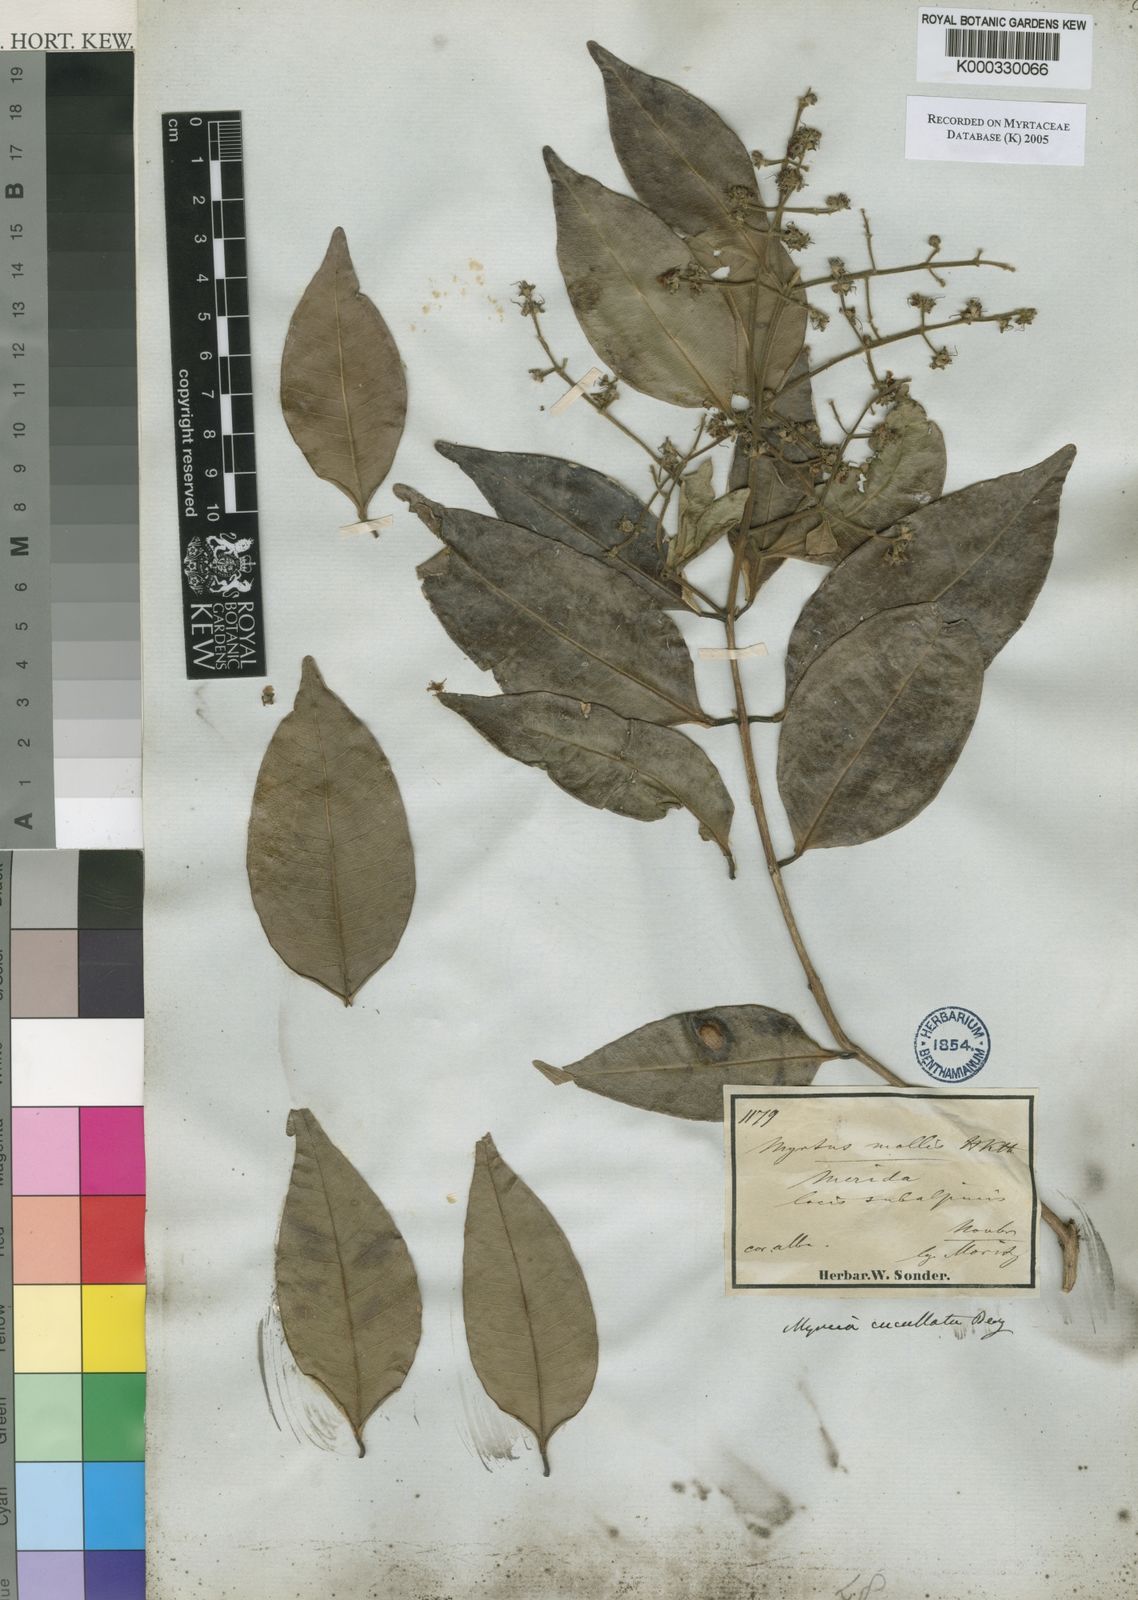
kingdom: Plantae
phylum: Tracheophyta
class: Magnoliopsida
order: Myrtales
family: Myrtaceae
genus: Myrcia
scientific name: Myrcia cucullata
